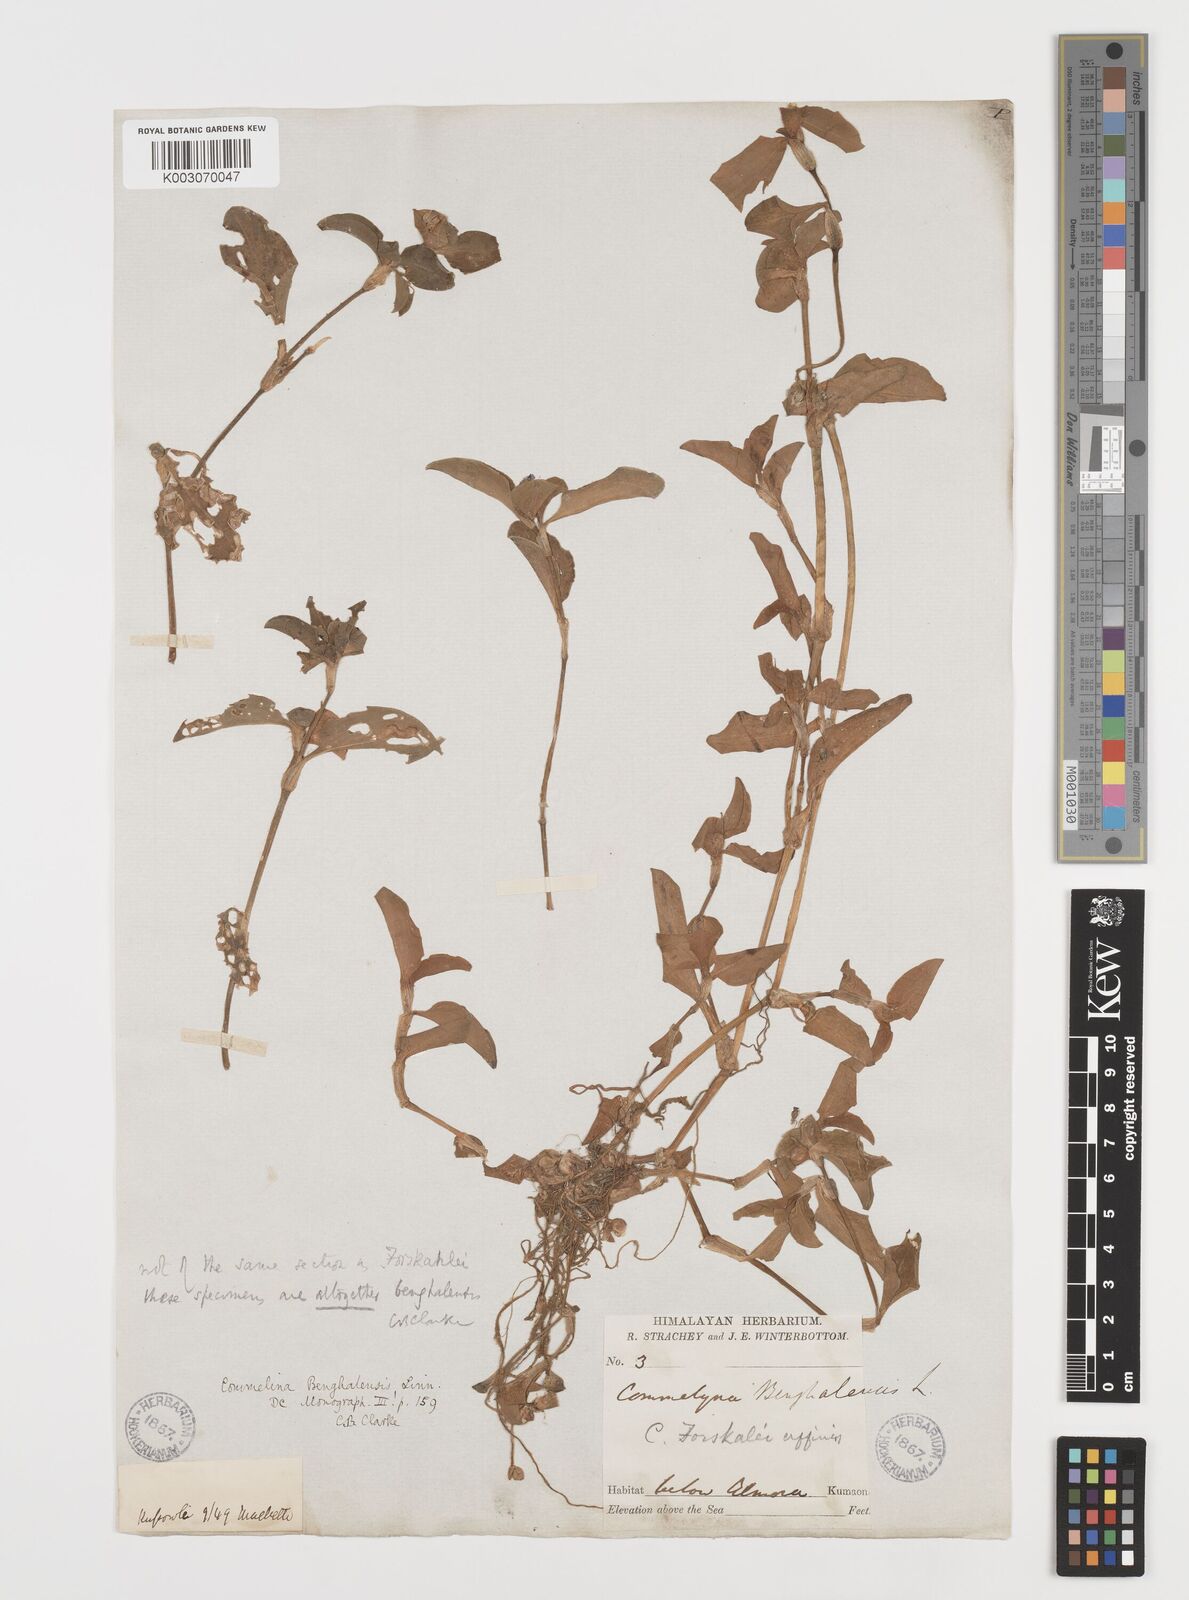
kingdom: Plantae
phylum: Tracheophyta
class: Liliopsida
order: Commelinales
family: Commelinaceae
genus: Commelina
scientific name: Commelina benghalensis
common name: Jio
